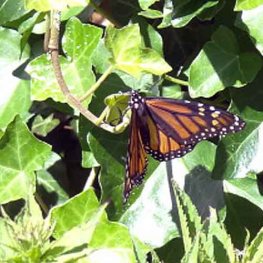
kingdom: Animalia
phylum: Arthropoda
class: Insecta
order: Lepidoptera
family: Nymphalidae
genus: Danaus
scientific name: Danaus plexippus
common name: Monarch
